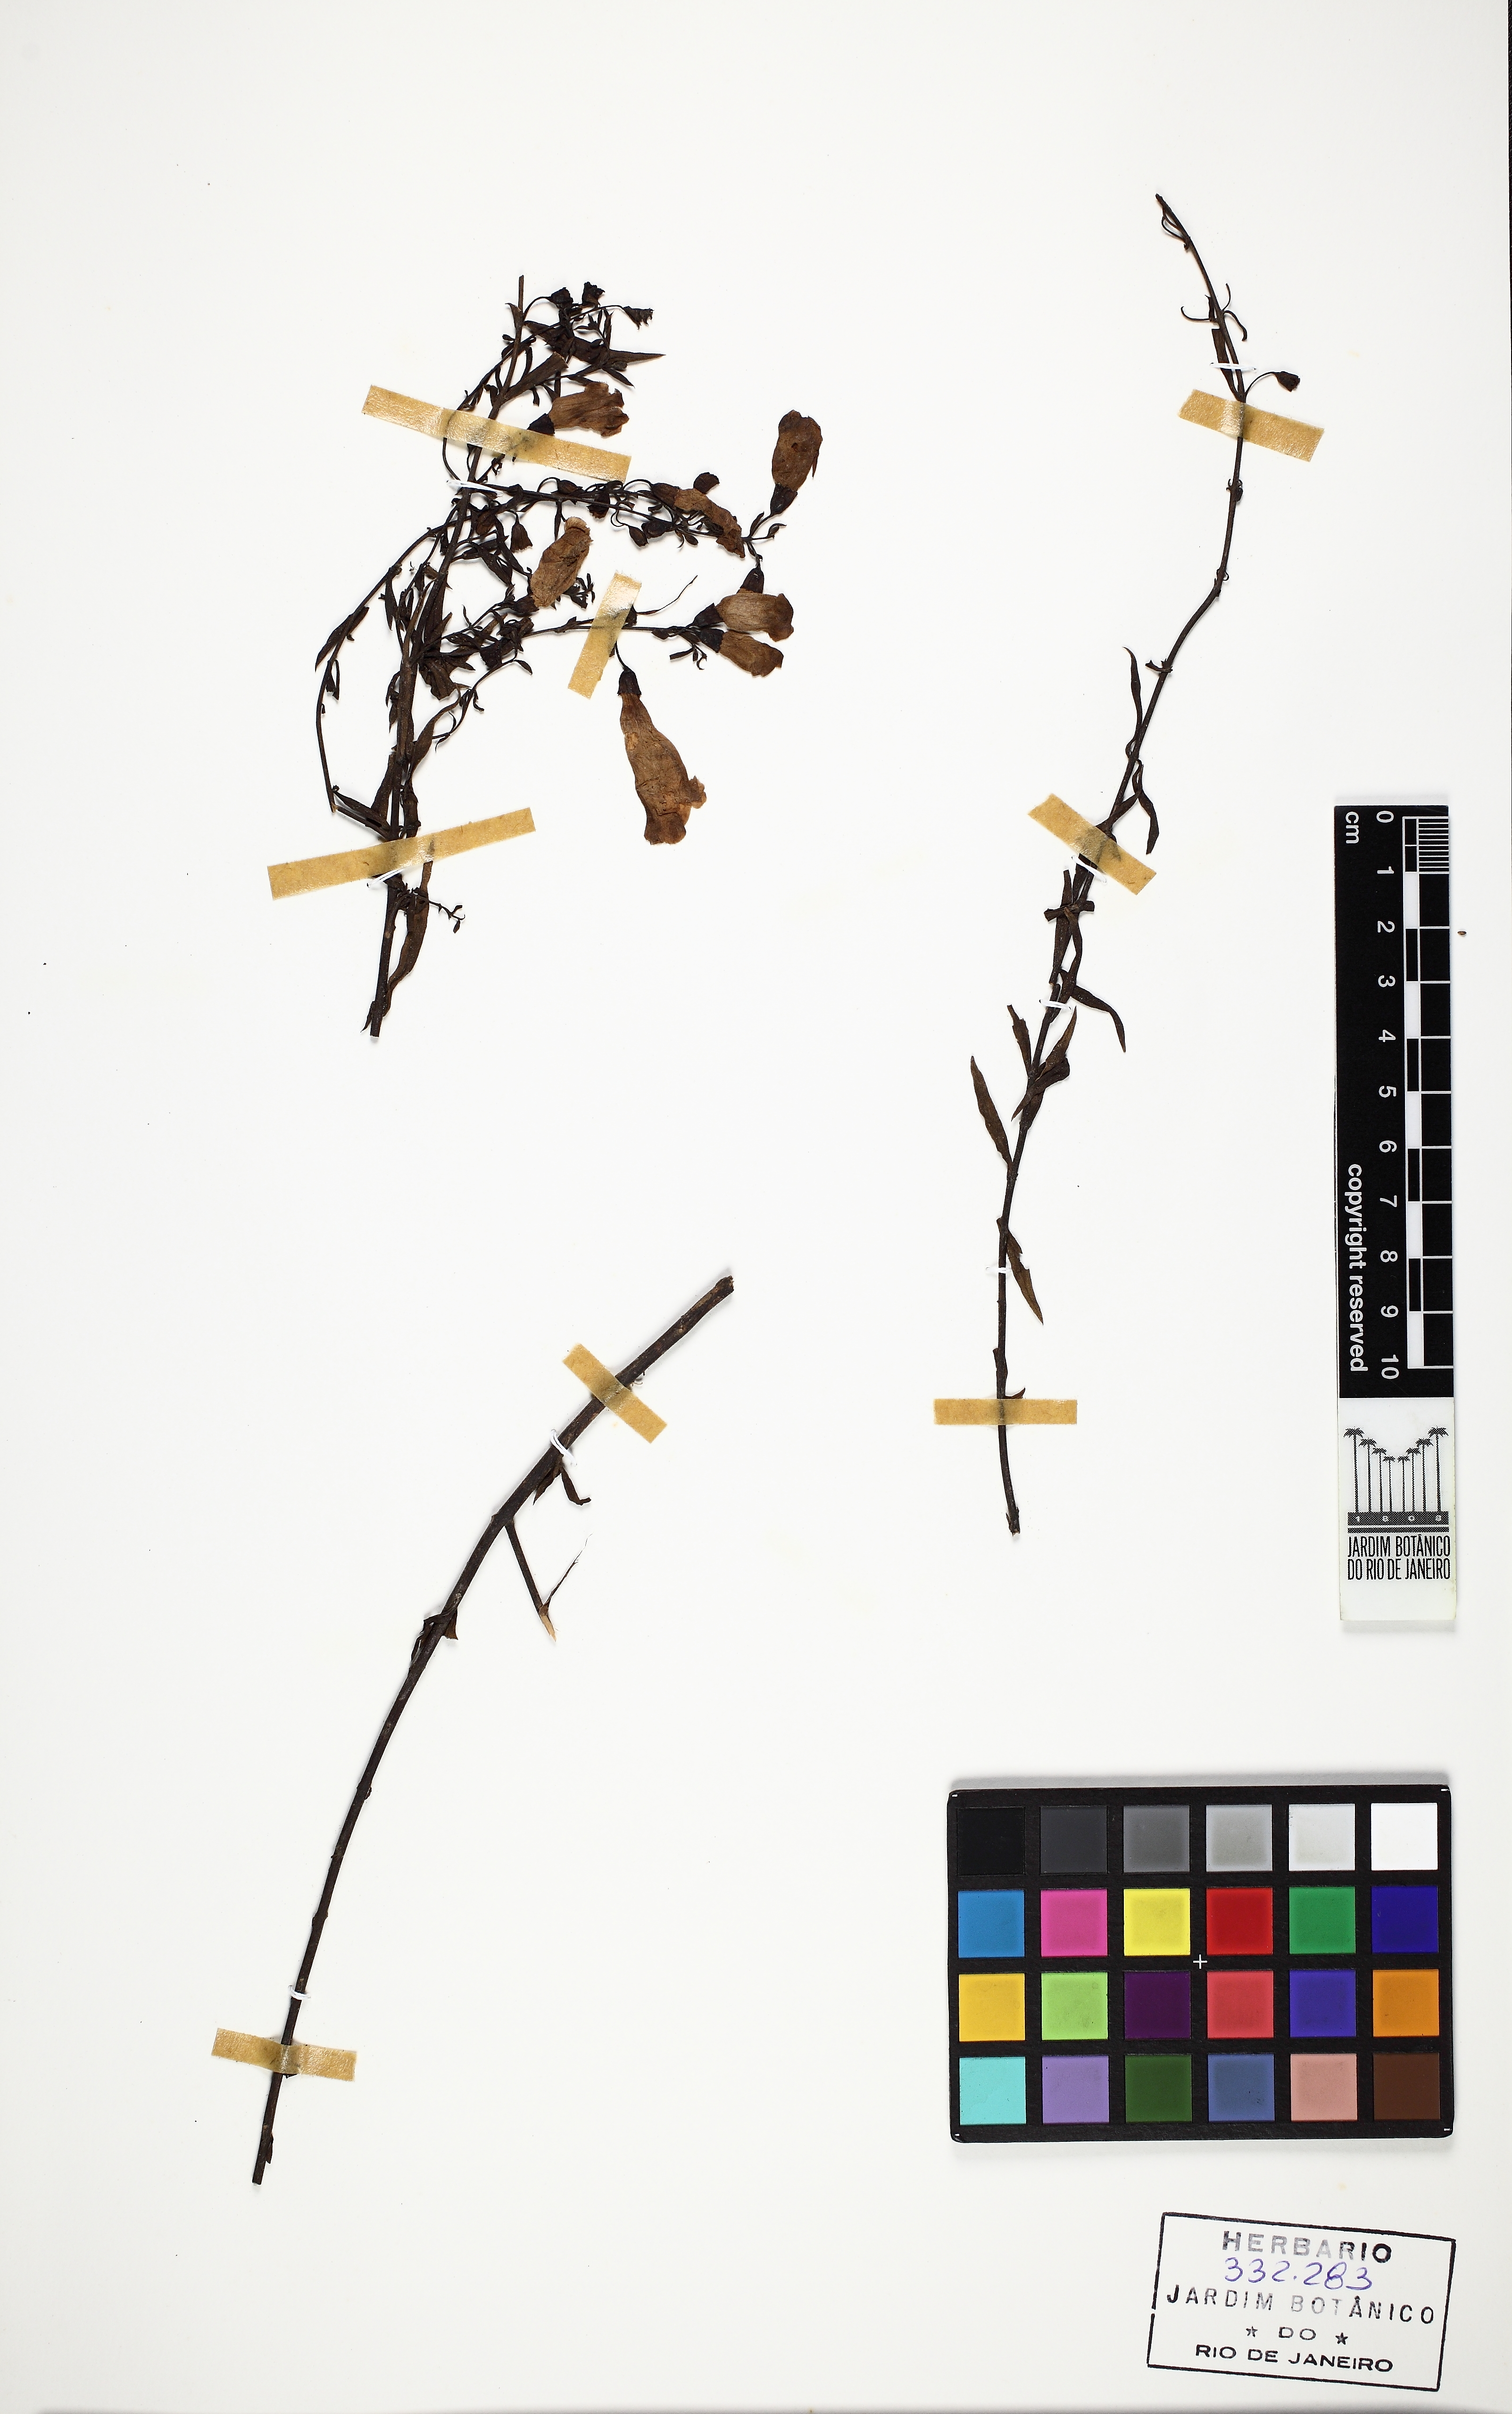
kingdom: Plantae
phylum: Tracheophyta
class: Magnoliopsida
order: Lamiales
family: Orobanchaceae
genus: Agalinis
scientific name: Agalinis lanceolata
